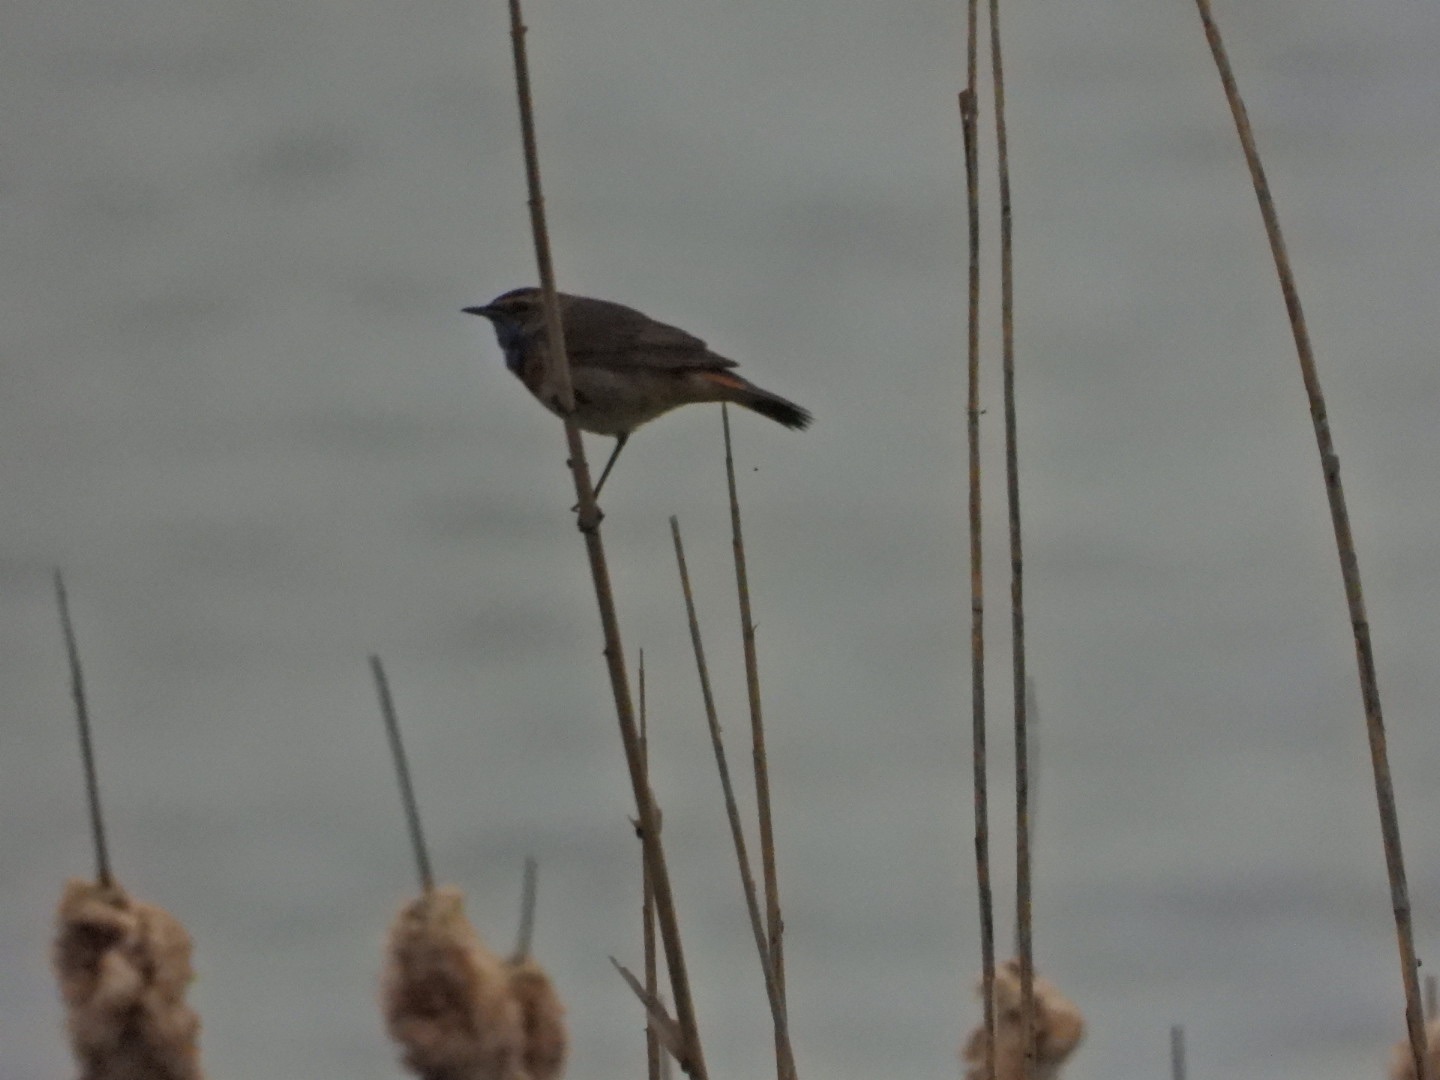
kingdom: Animalia
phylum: Chordata
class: Aves
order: Passeriformes
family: Muscicapidae
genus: Luscinia
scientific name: Luscinia svecica
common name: Blåhals
